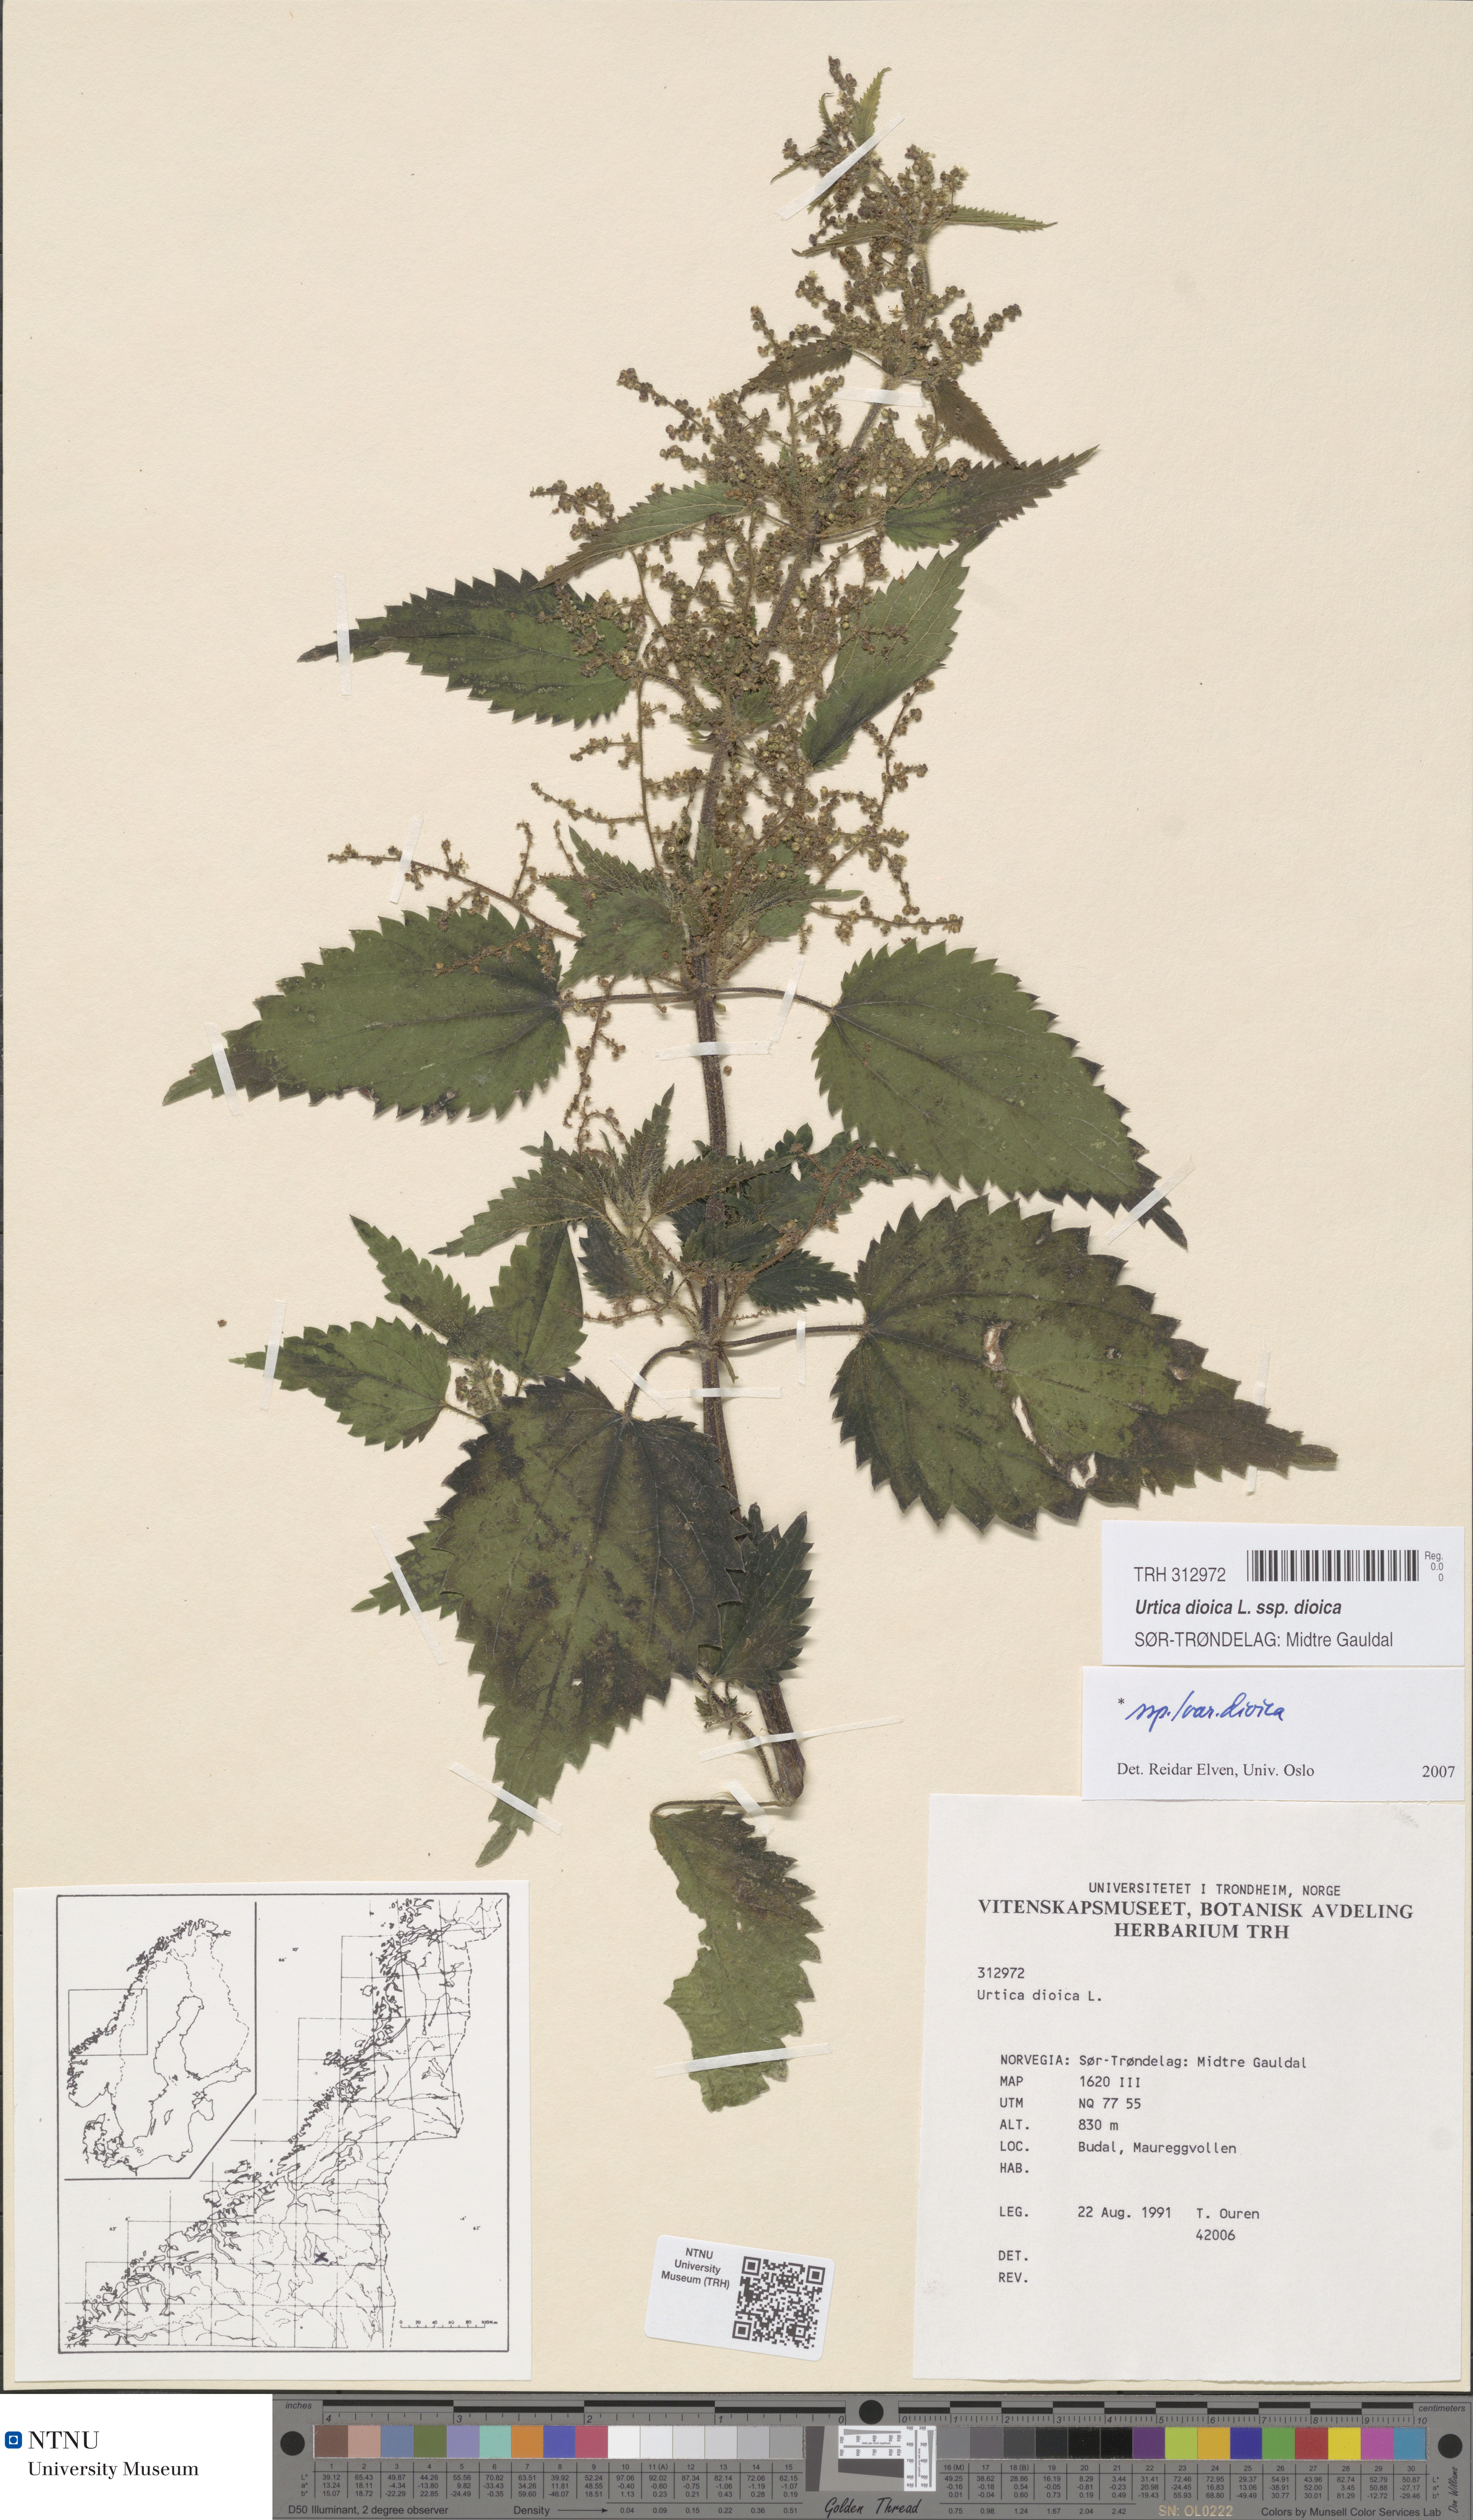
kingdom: Plantae
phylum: Tracheophyta
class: Magnoliopsida
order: Rosales
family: Urticaceae
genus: Urtica
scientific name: Urtica dioica
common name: Common nettle
